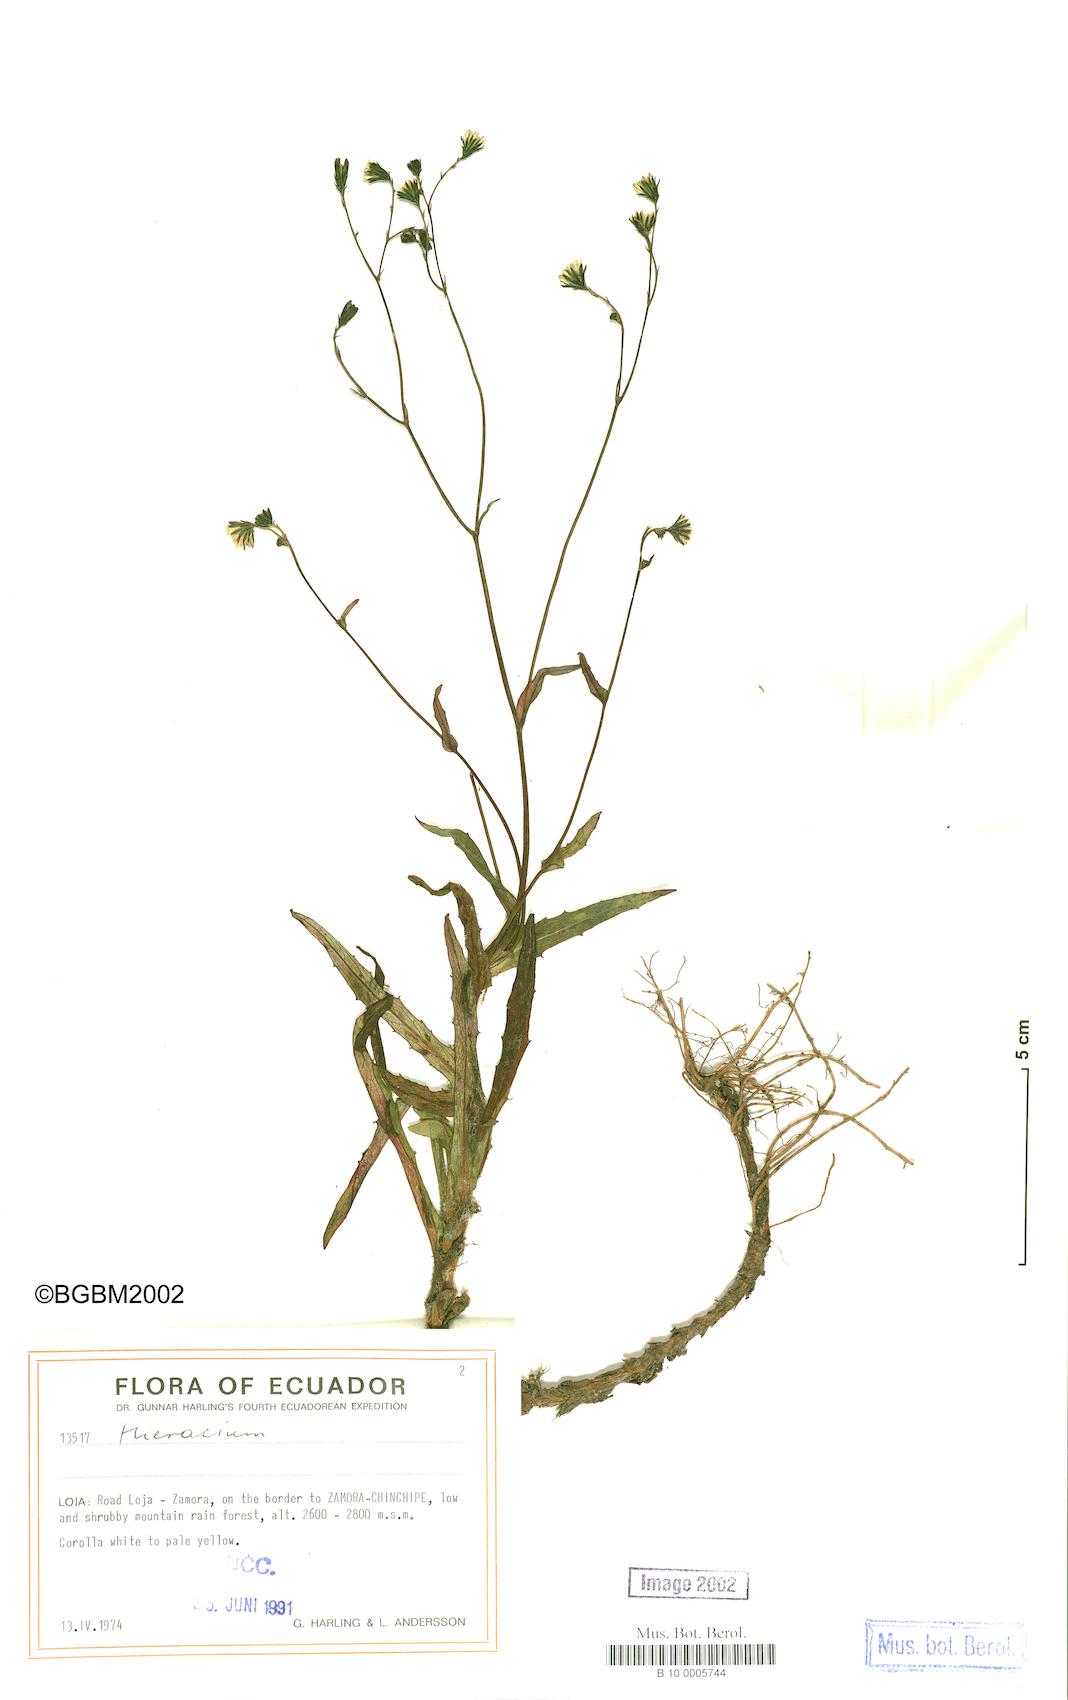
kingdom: Plantae
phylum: Tracheophyta
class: Magnoliopsida
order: Asterales
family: Asteraceae
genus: Hieracium
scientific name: Hieracium lagopus
